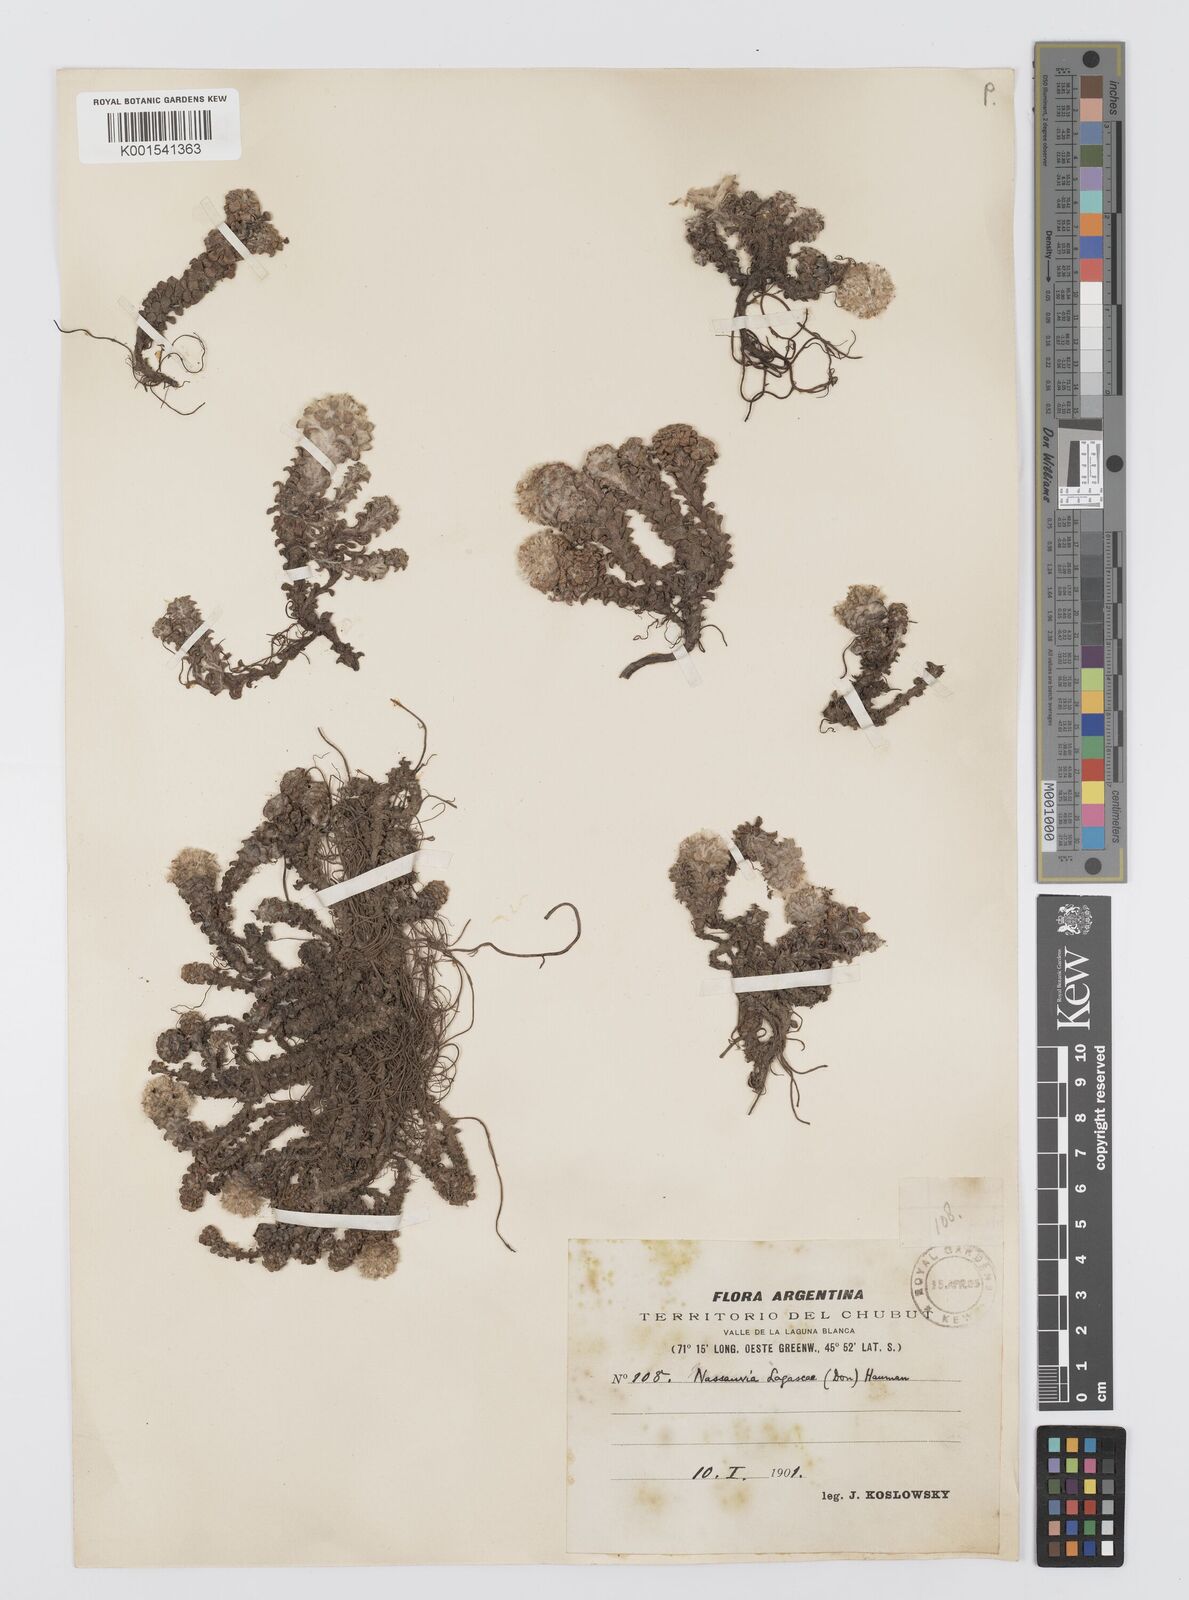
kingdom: Plantae
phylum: Tracheophyta
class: Magnoliopsida
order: Asterales
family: Asteraceae
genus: Nassauvia
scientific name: Nassauvia lagascae
